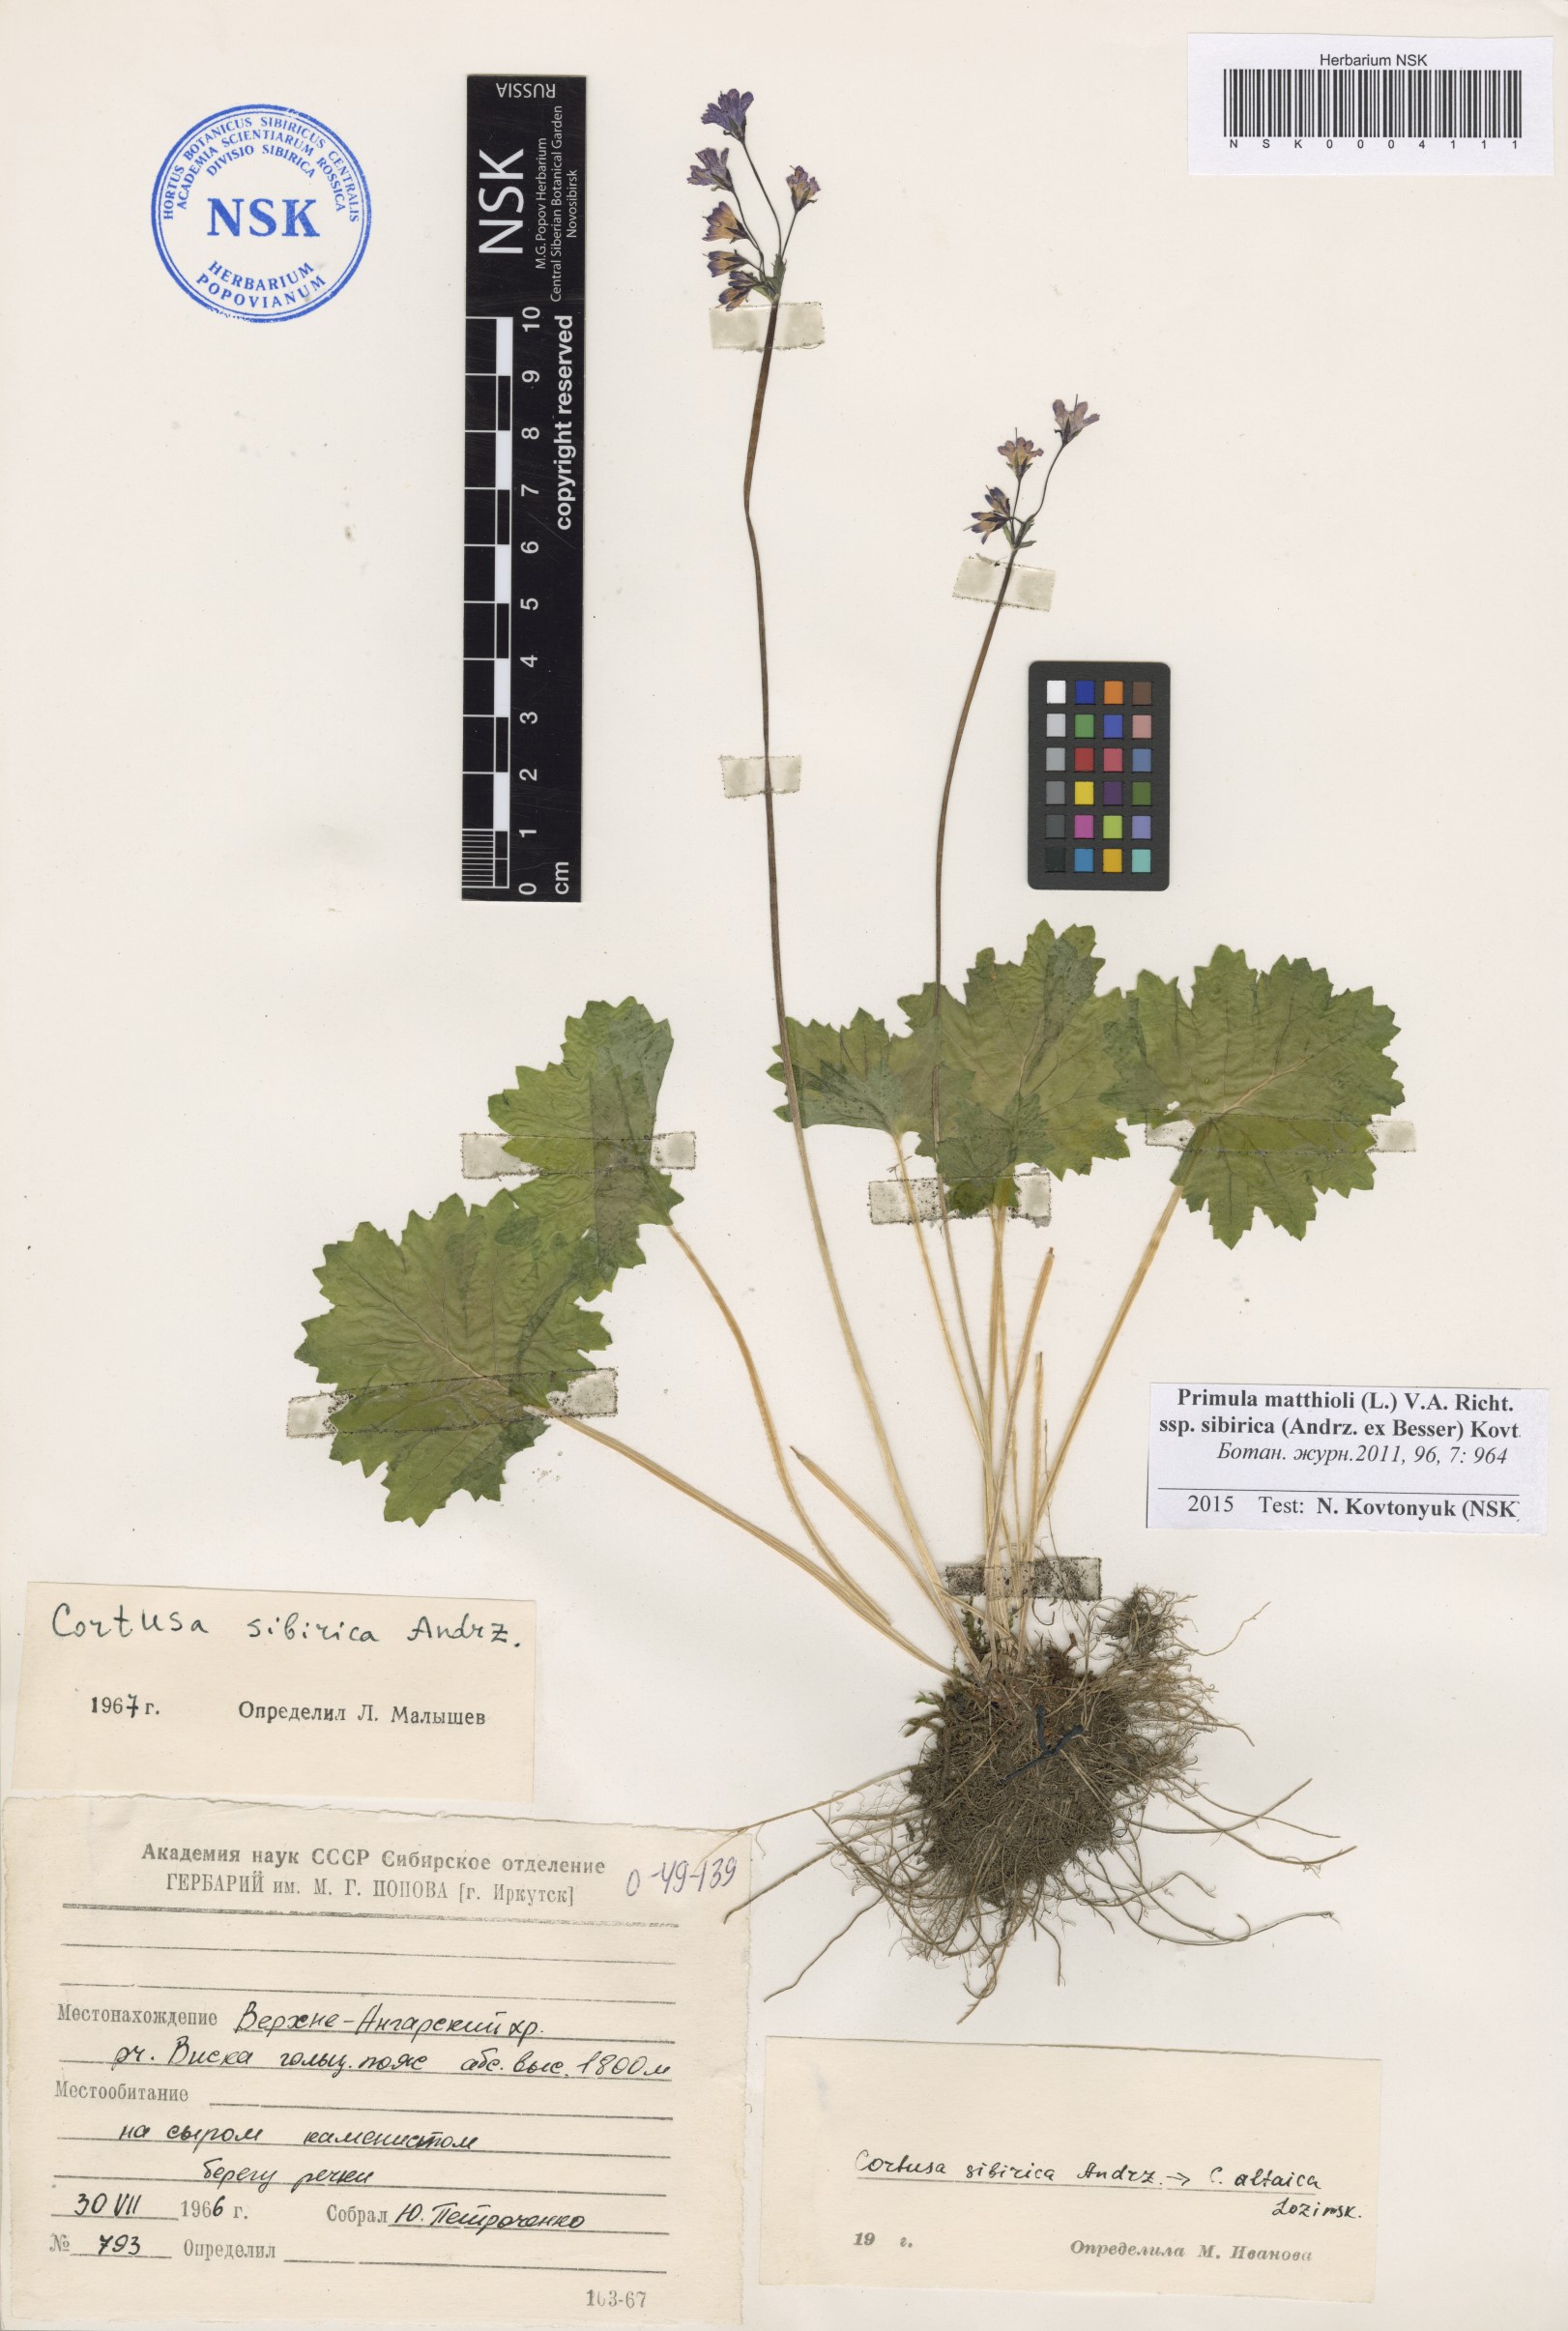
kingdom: Plantae
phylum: Tracheophyta
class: Magnoliopsida
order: Ericales
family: Primulaceae
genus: Primula
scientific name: Primula matthioli
